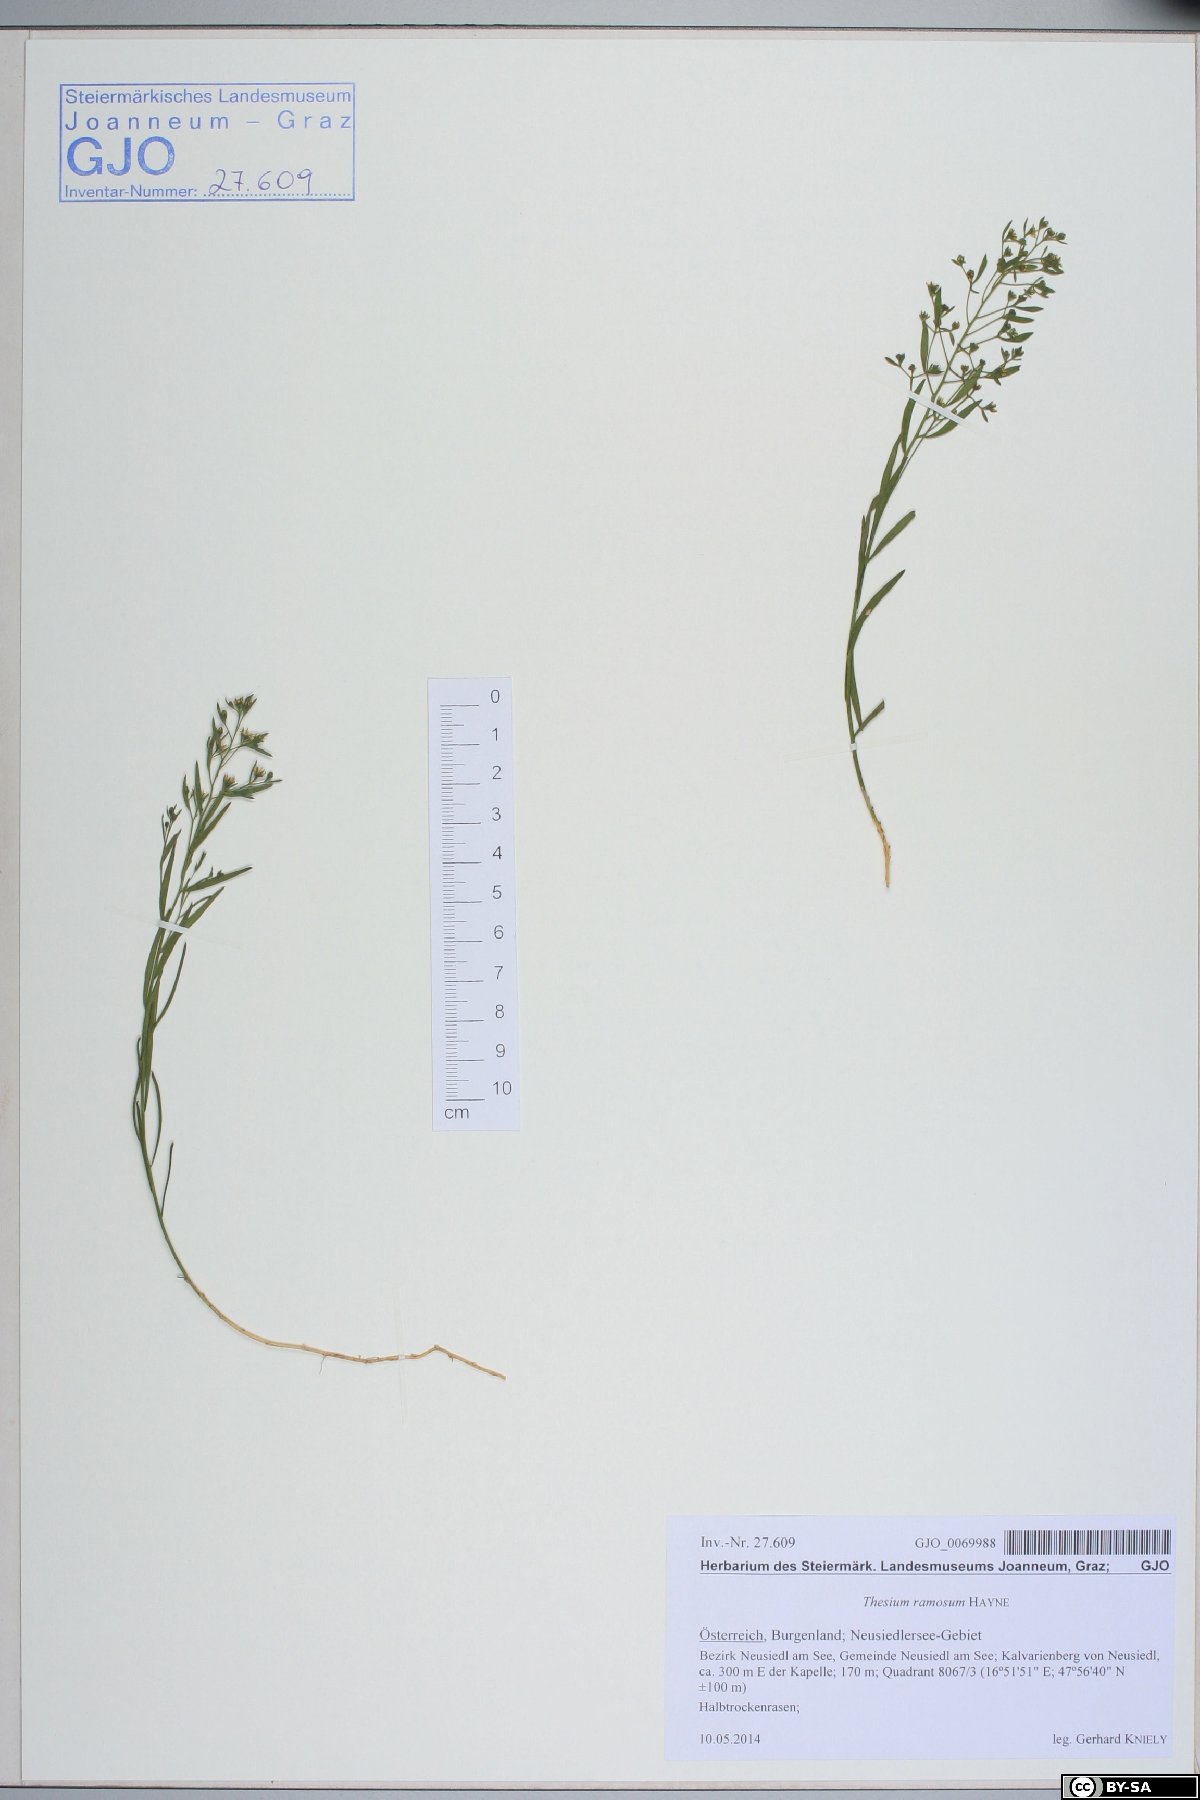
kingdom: Plantae
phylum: Tracheophyta
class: Magnoliopsida
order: Santalales
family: Thesiaceae
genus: Thesium
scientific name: Thesium ramosum
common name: Field thesium
